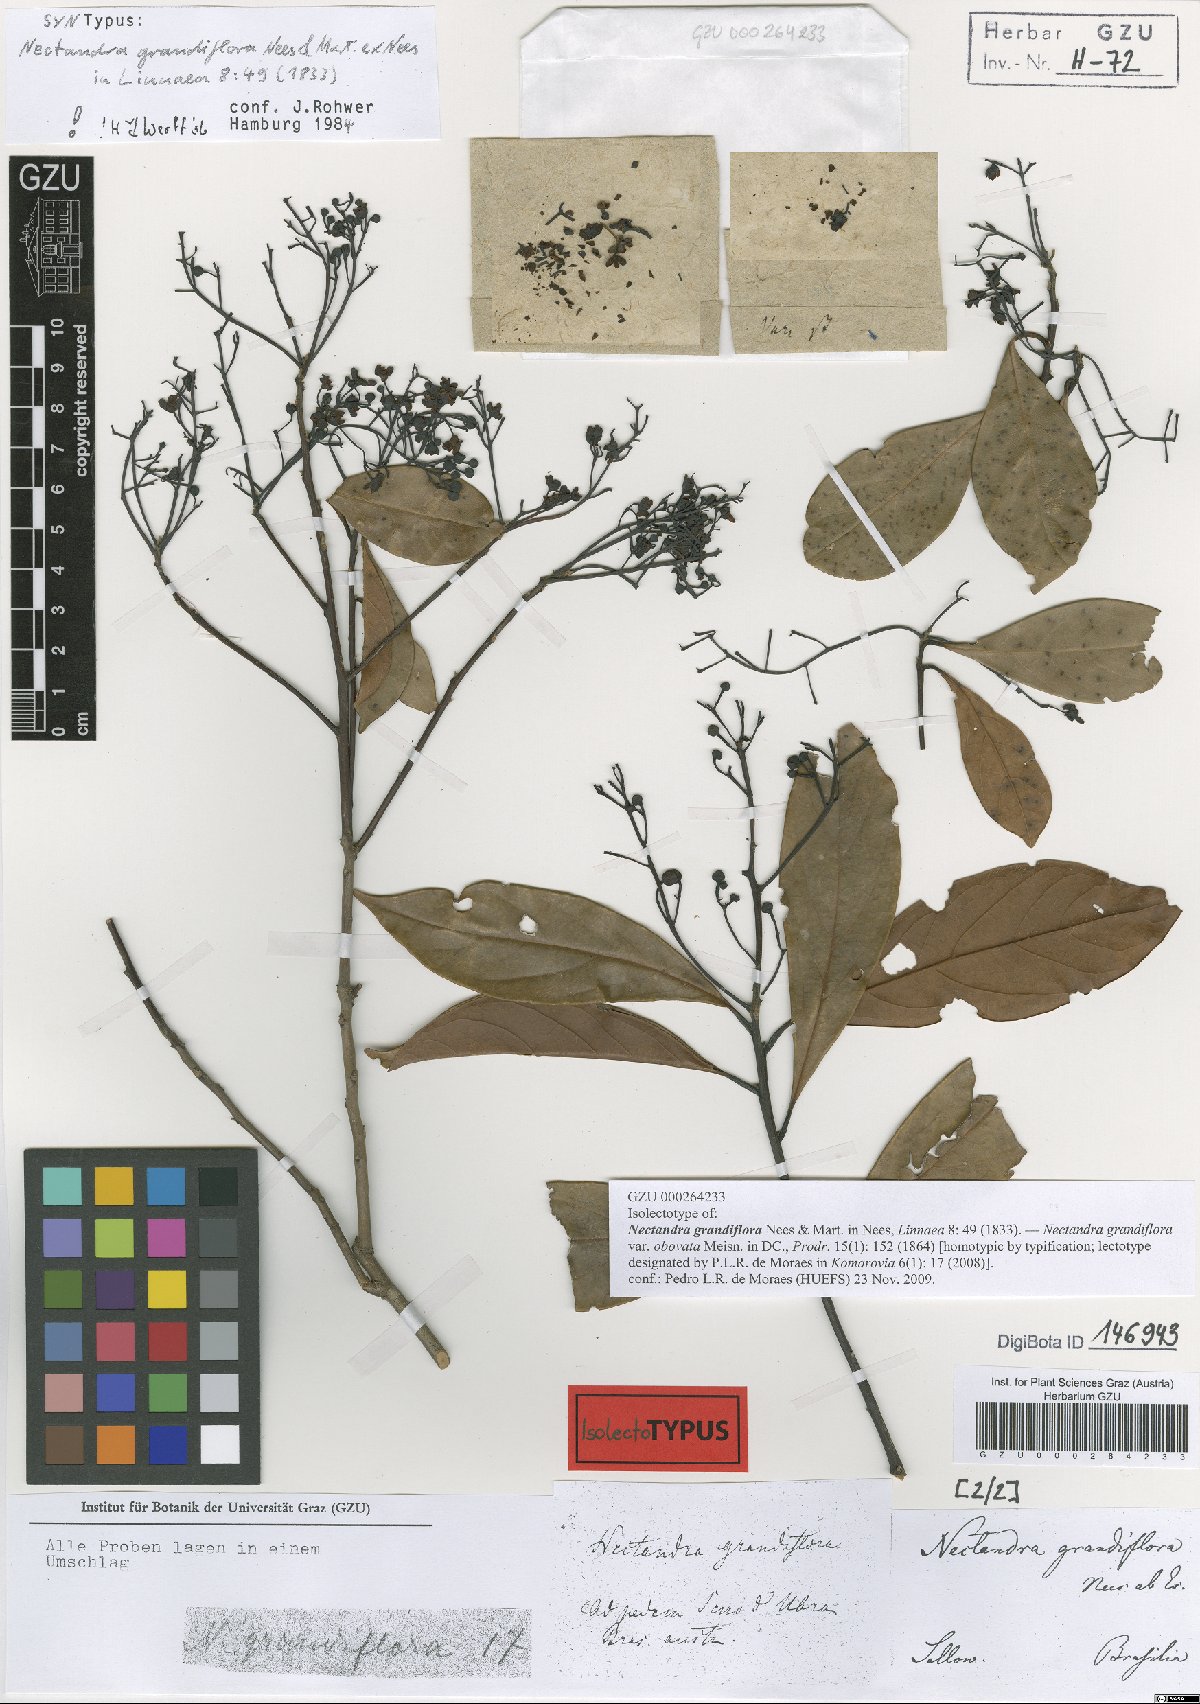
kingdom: Plantae
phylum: Tracheophyta
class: Magnoliopsida
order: Laurales
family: Lauraceae
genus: Nectandra
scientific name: Nectandra grandiflora
